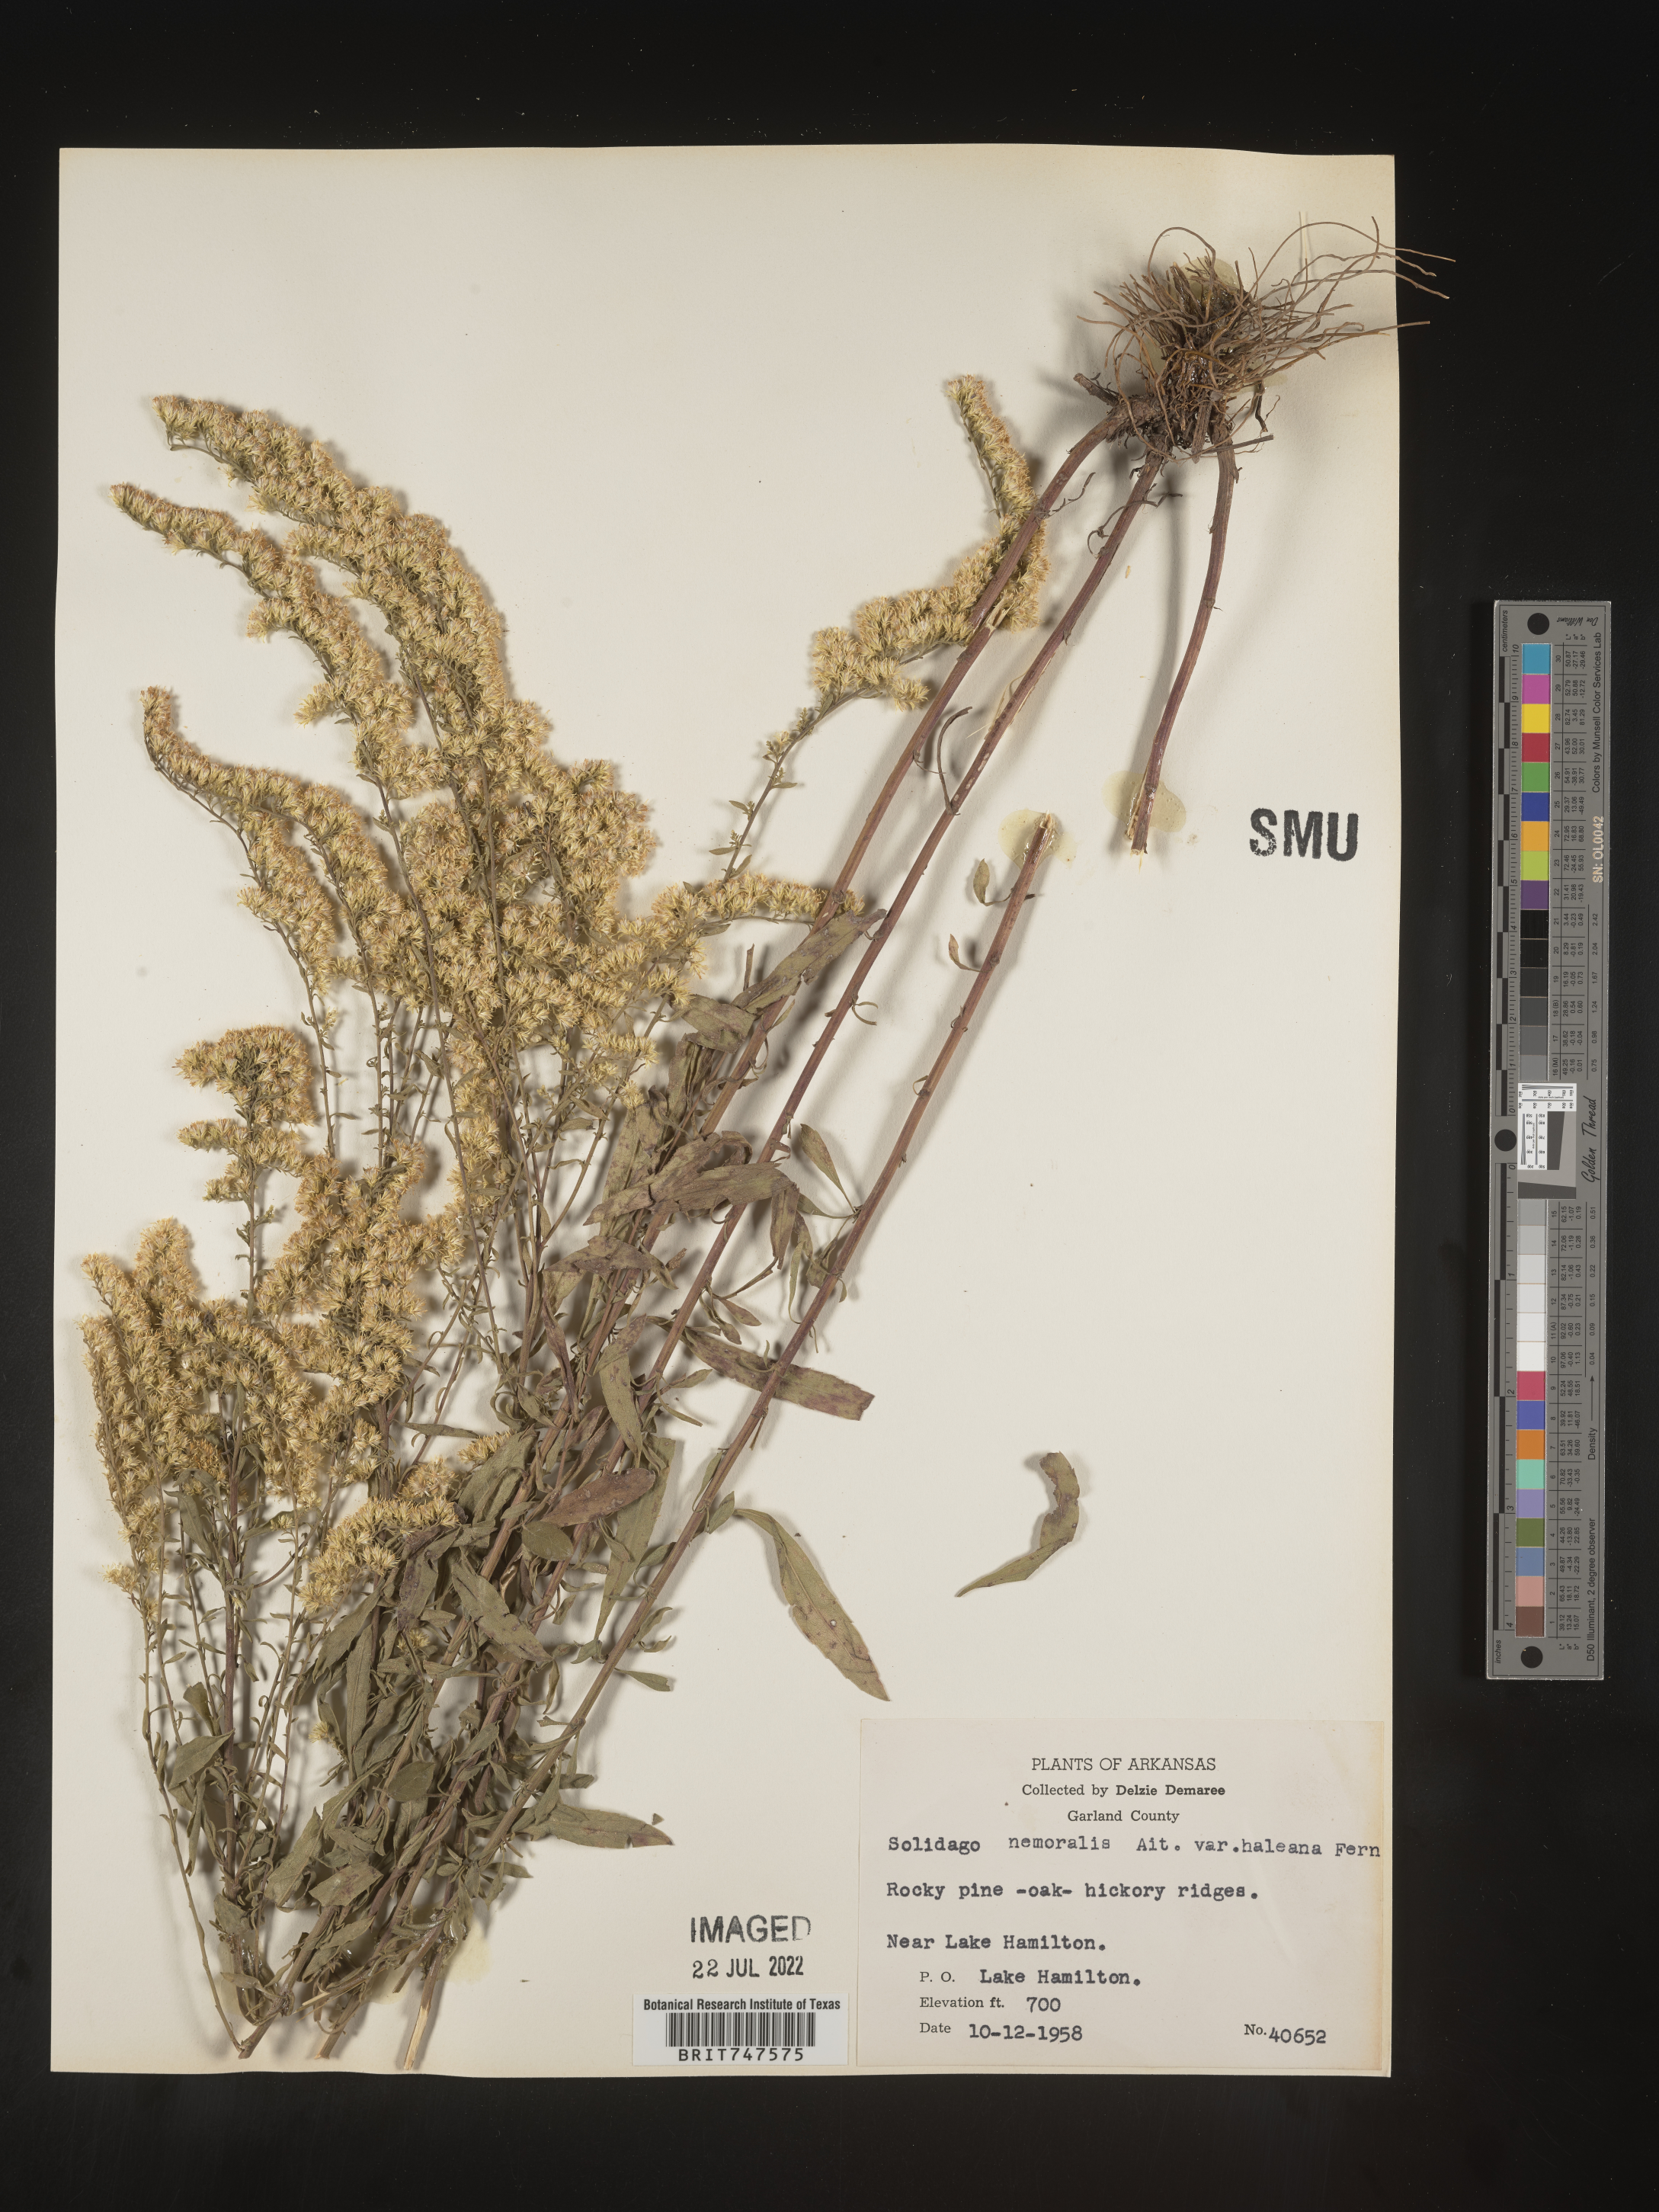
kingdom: Plantae
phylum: Tracheophyta
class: Magnoliopsida
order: Asterales
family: Asteraceae
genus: Solidago
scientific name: Solidago nemoralis
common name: Grey goldenrod
